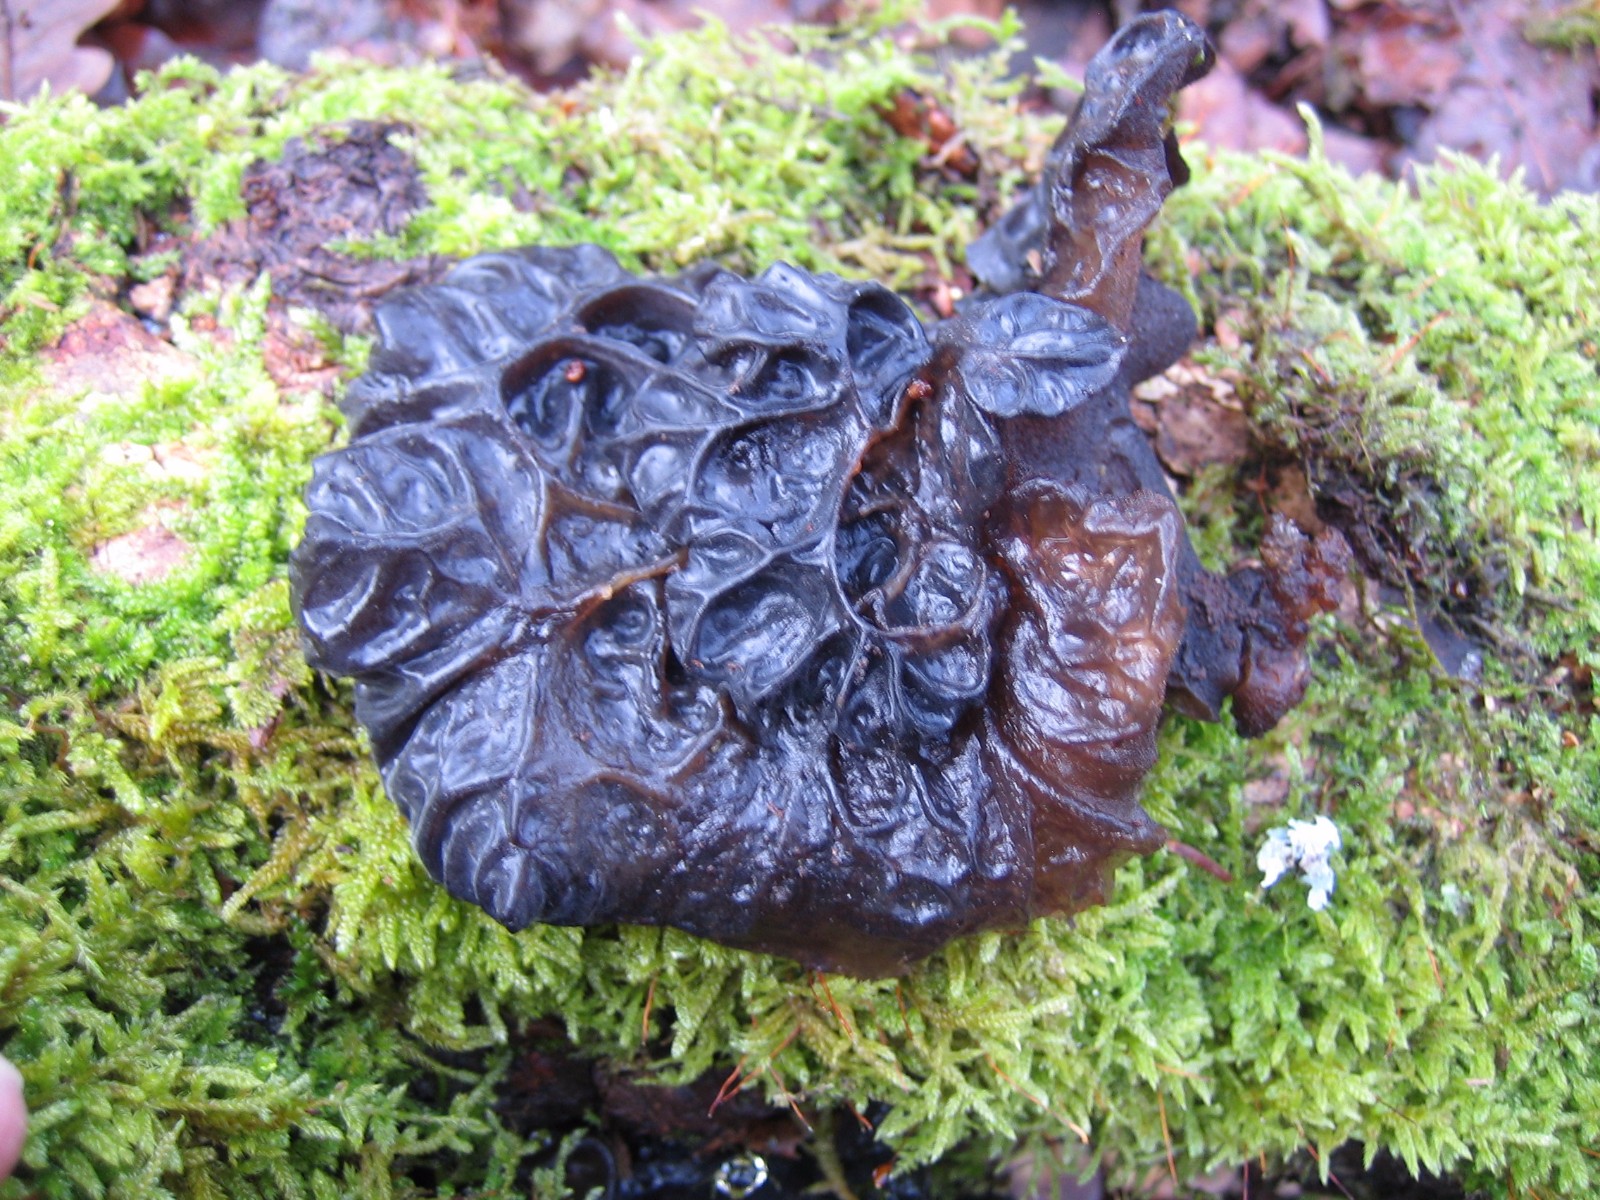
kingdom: Fungi
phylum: Basidiomycota
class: Agaricomycetes
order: Auriculariales
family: Auriculariaceae
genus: Exidia
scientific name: Exidia glandulosa
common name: ege-bævretop
